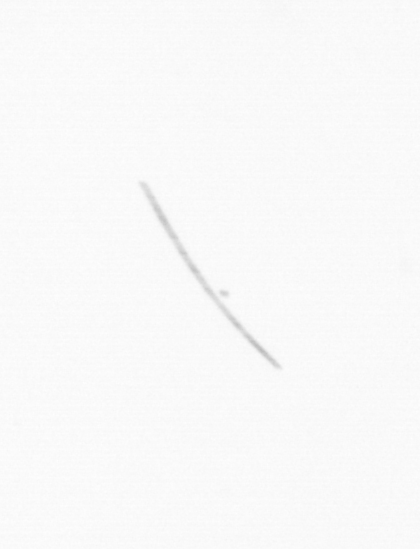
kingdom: Chromista
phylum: Ochrophyta
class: Bacillariophyceae
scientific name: Bacillariophyceae
